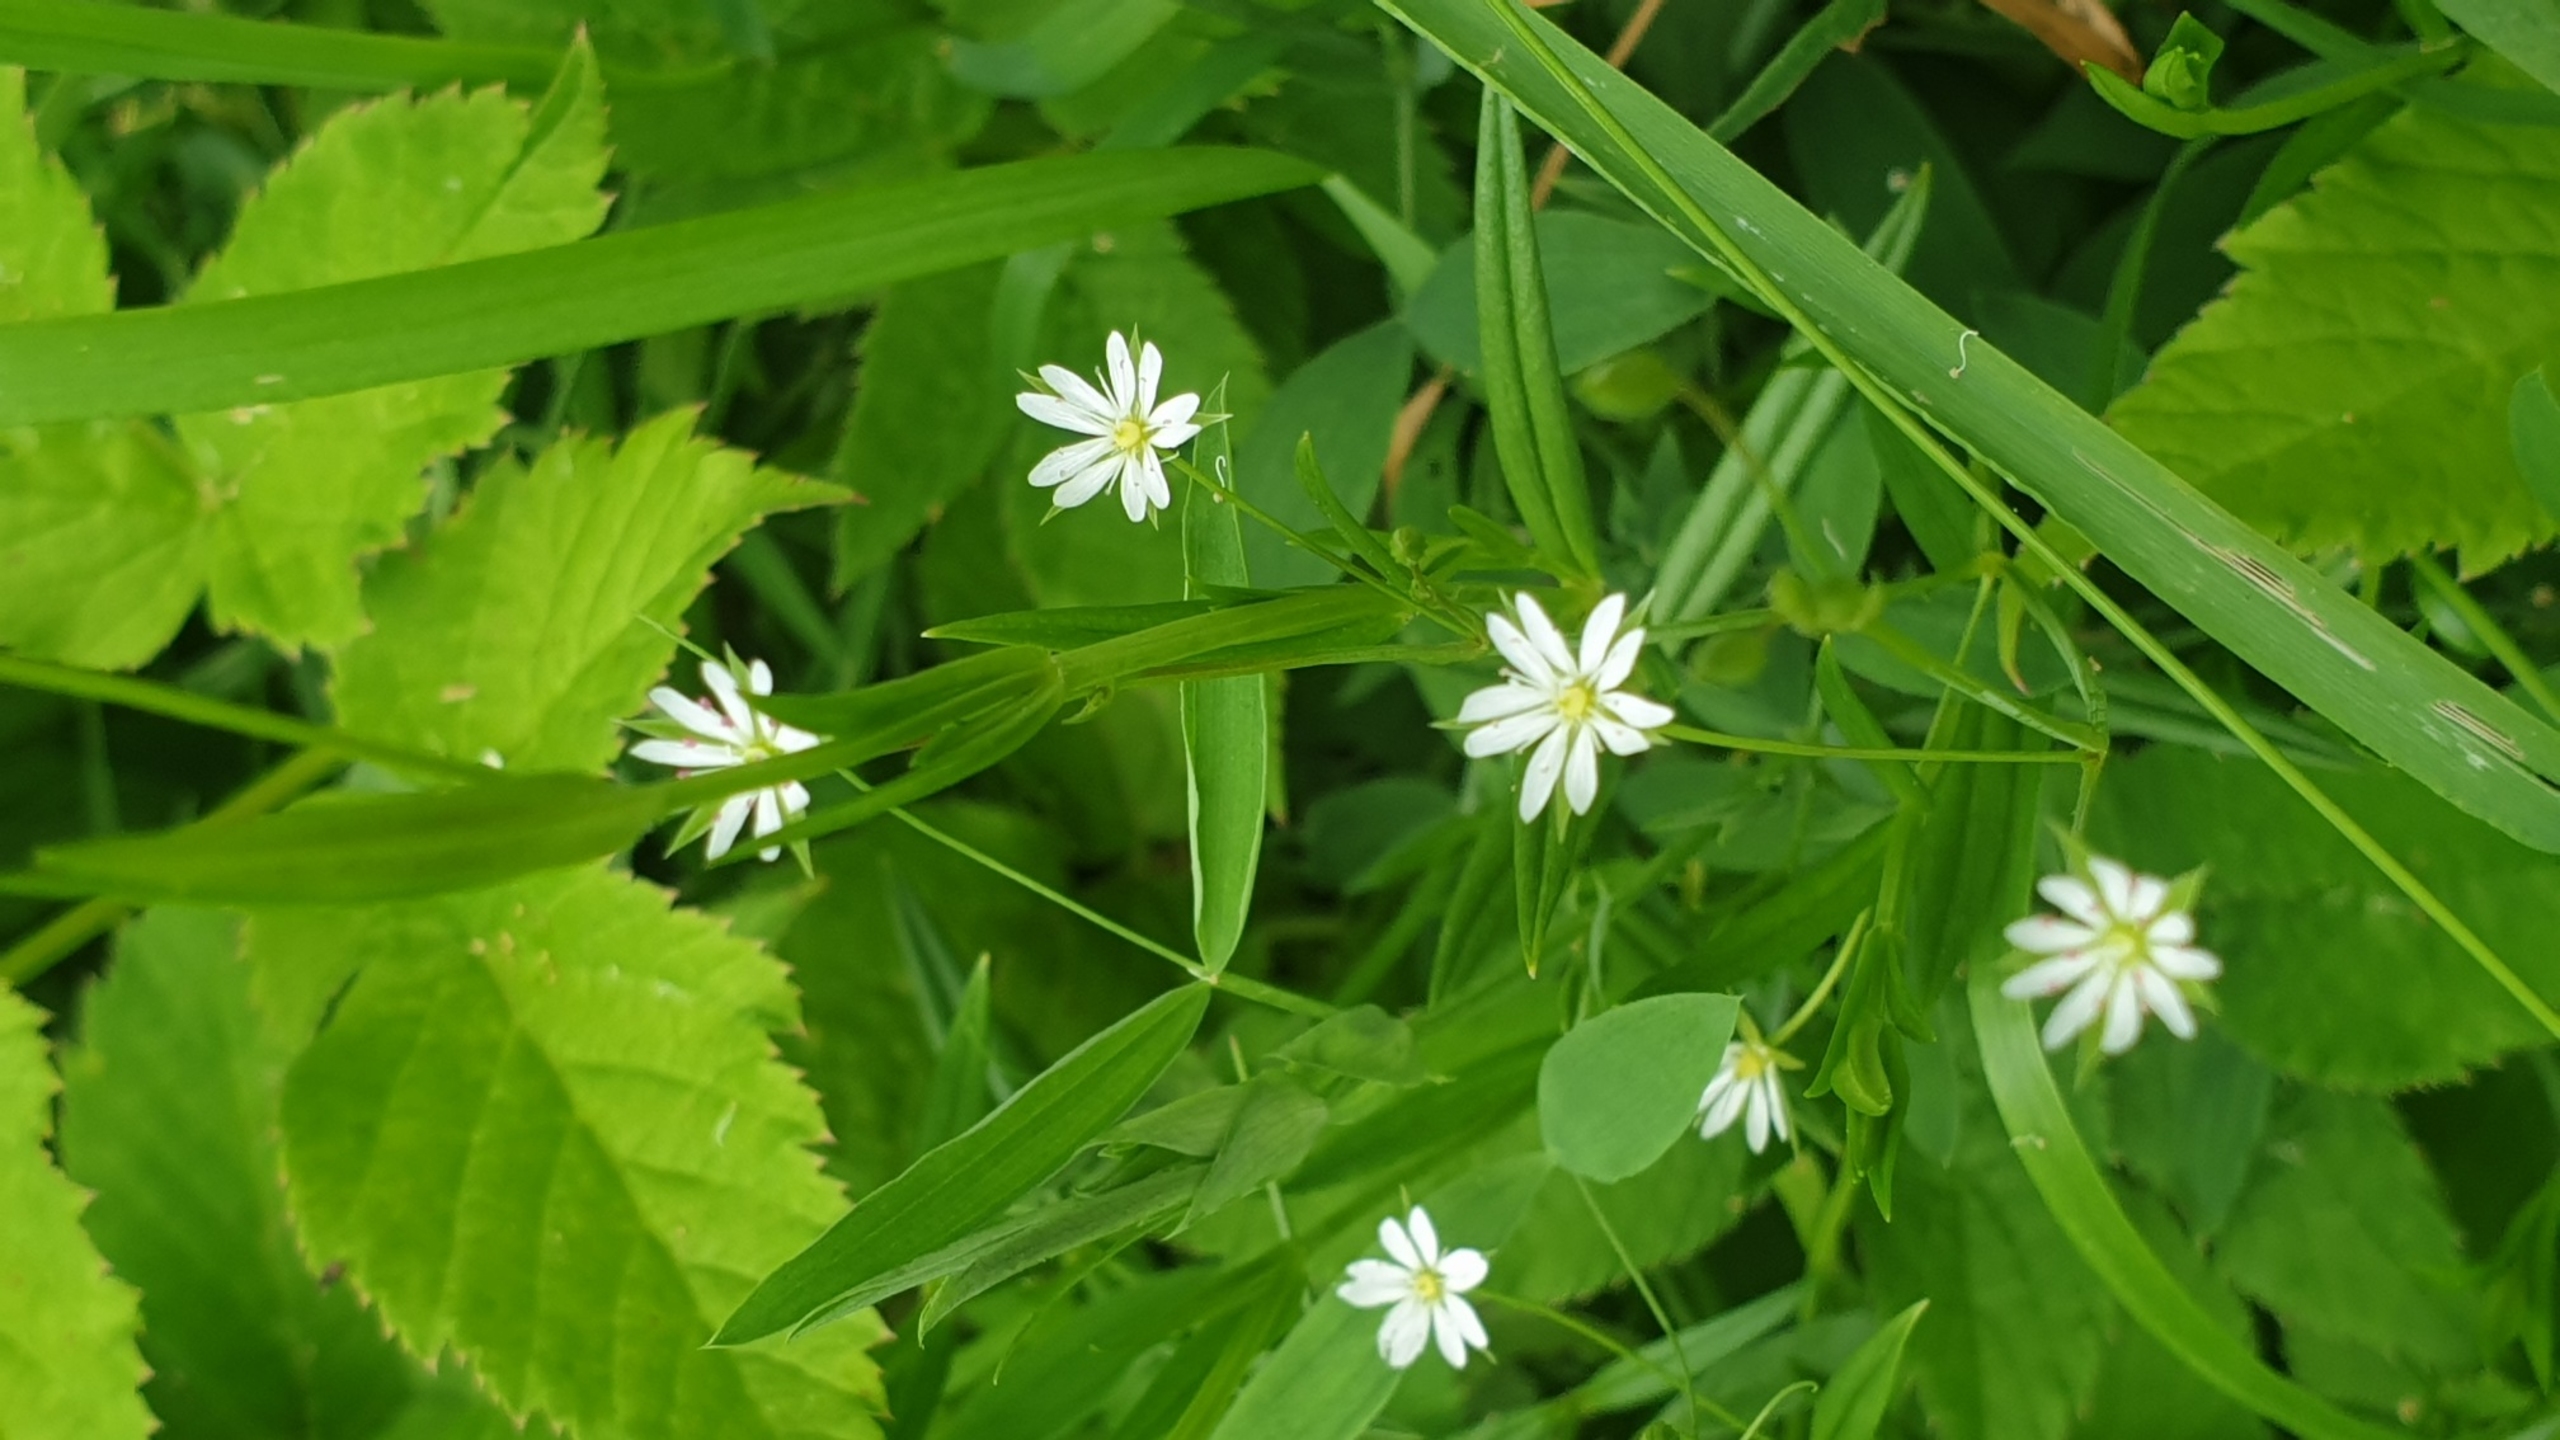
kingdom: Plantae
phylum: Tracheophyta
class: Magnoliopsida
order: Caryophyllales
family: Caryophyllaceae
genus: Stellaria
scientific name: Stellaria graminea
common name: Græsbladet fladstjerne
